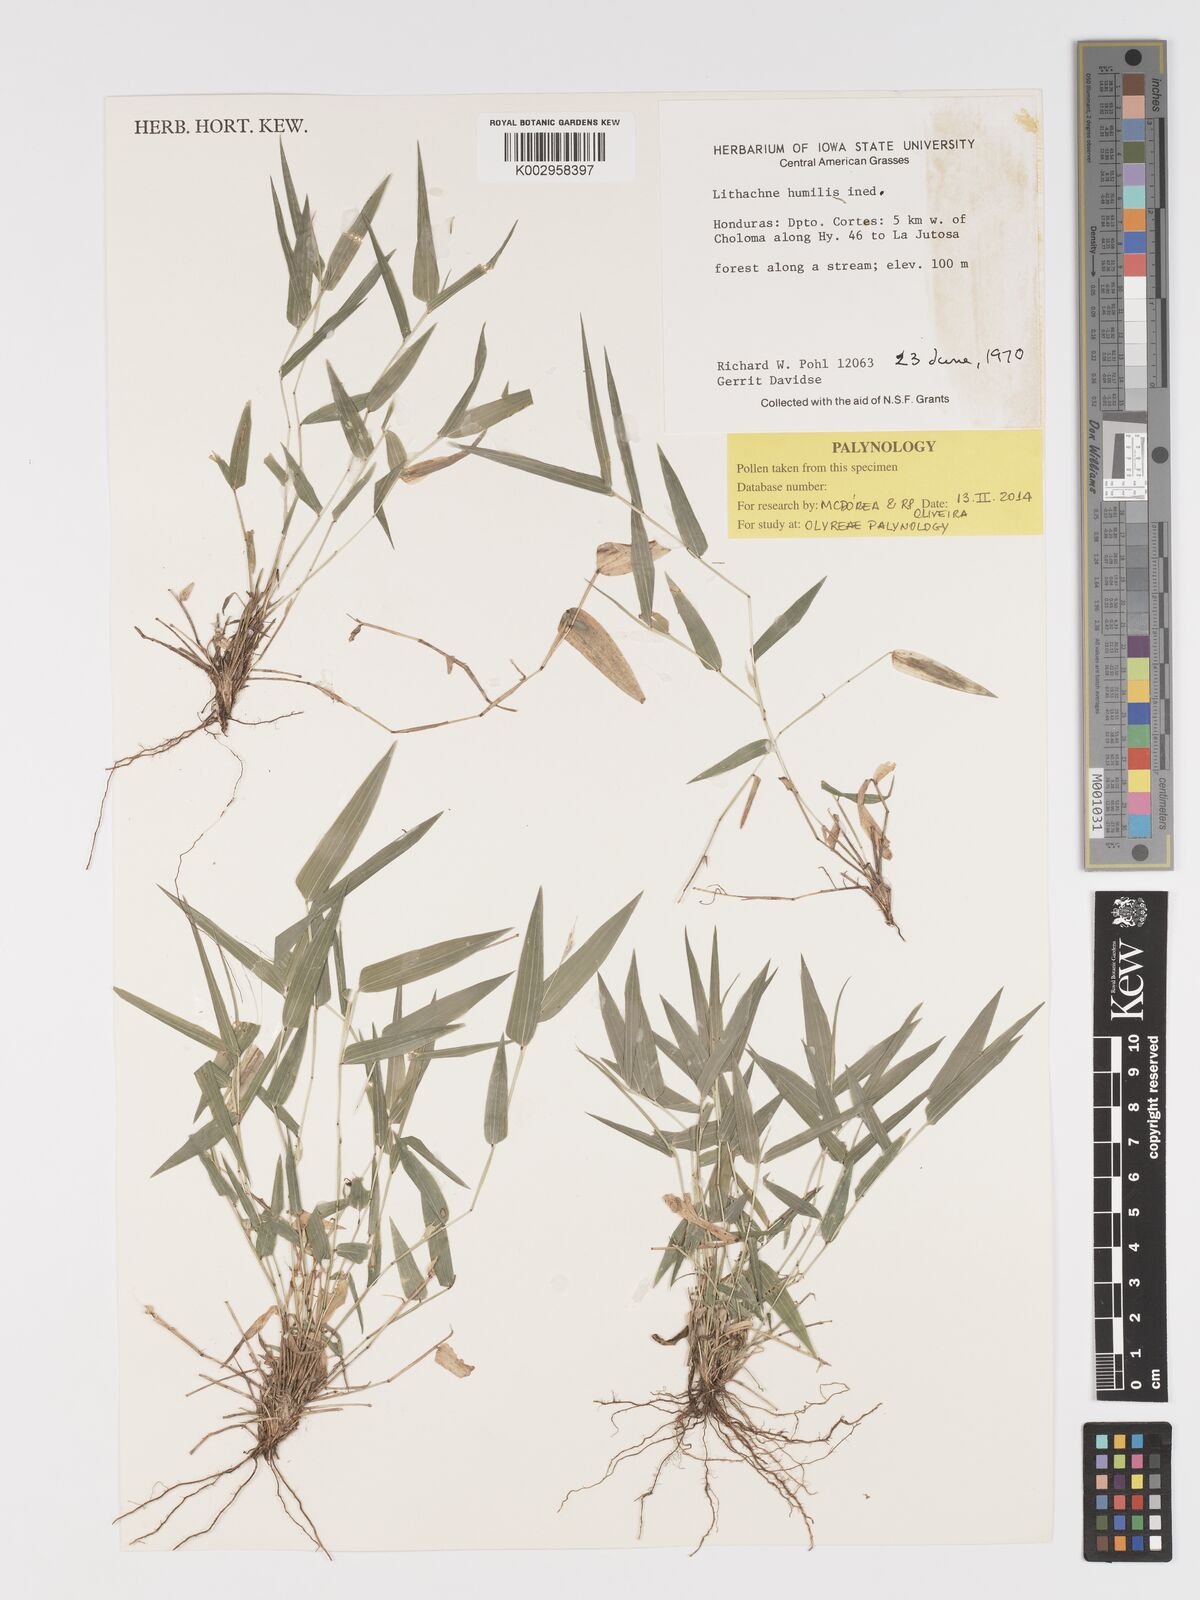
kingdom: Plantae
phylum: Tracheophyta
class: Liliopsida
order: Poales
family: Poaceae
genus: Lithachne
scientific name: Lithachne humilis
